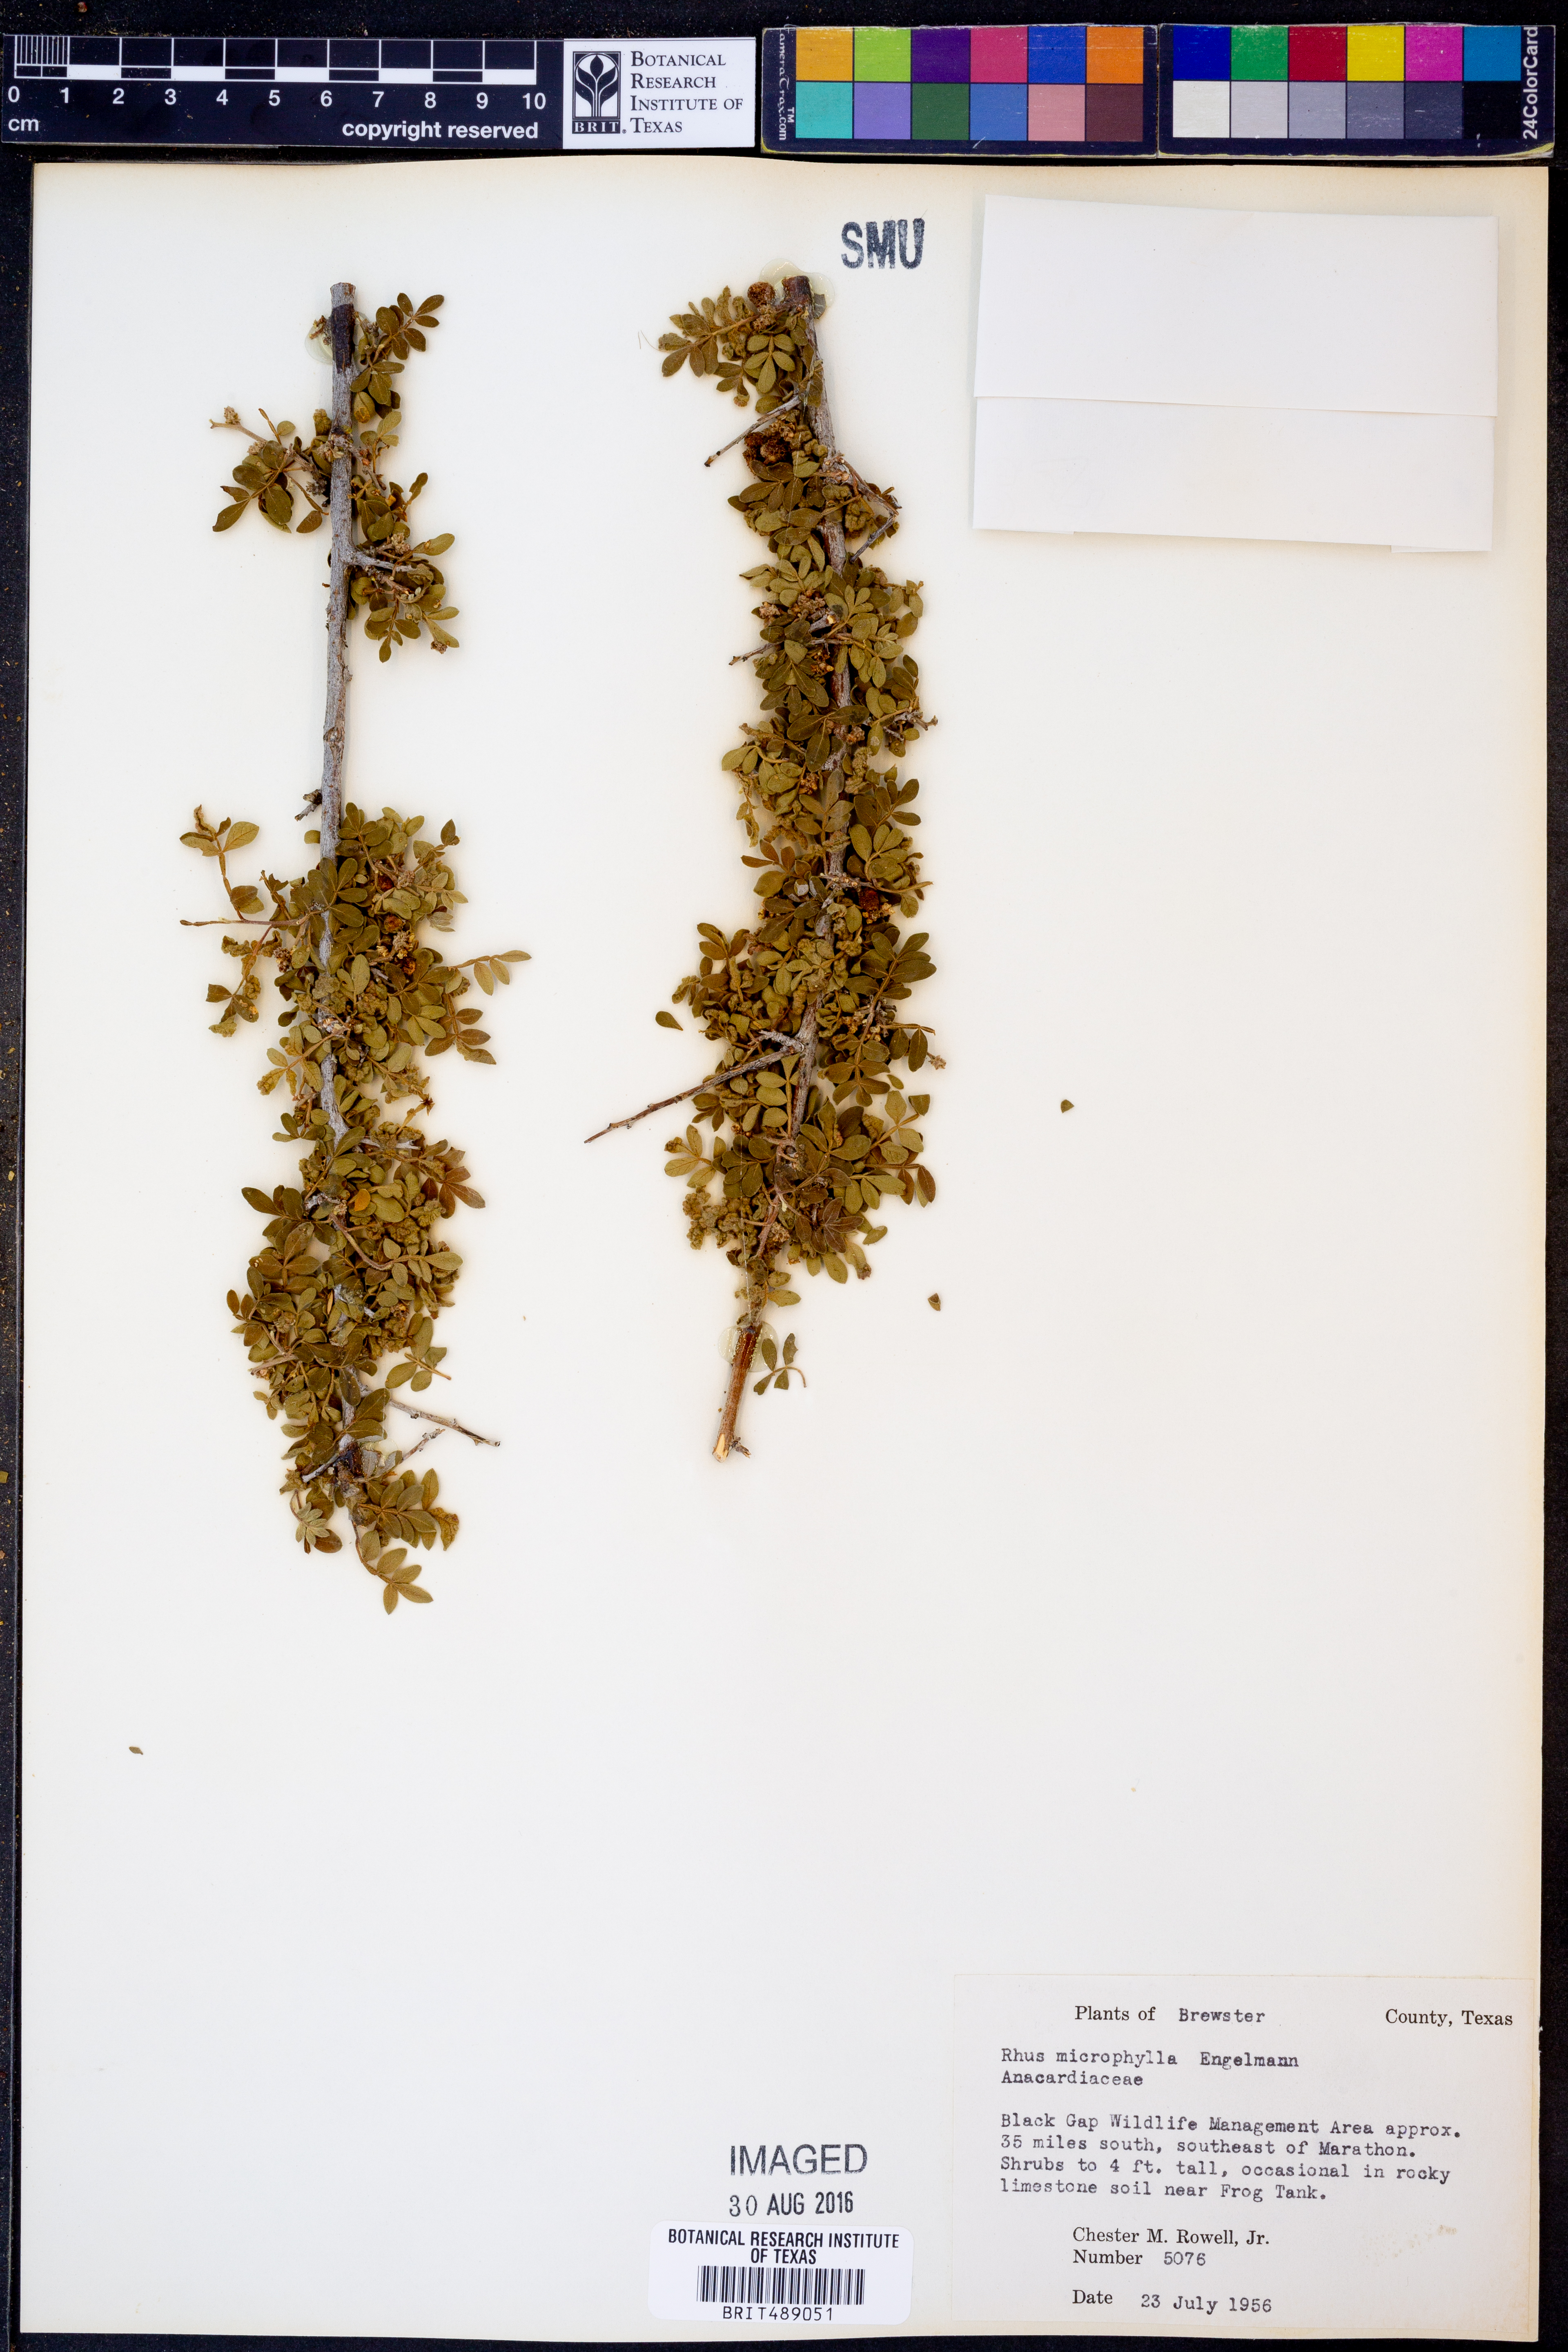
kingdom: Plantae
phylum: Tracheophyta
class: Magnoliopsida
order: Sapindales
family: Anacardiaceae
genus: Rhus
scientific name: Rhus microphylla
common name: Desert sumac
